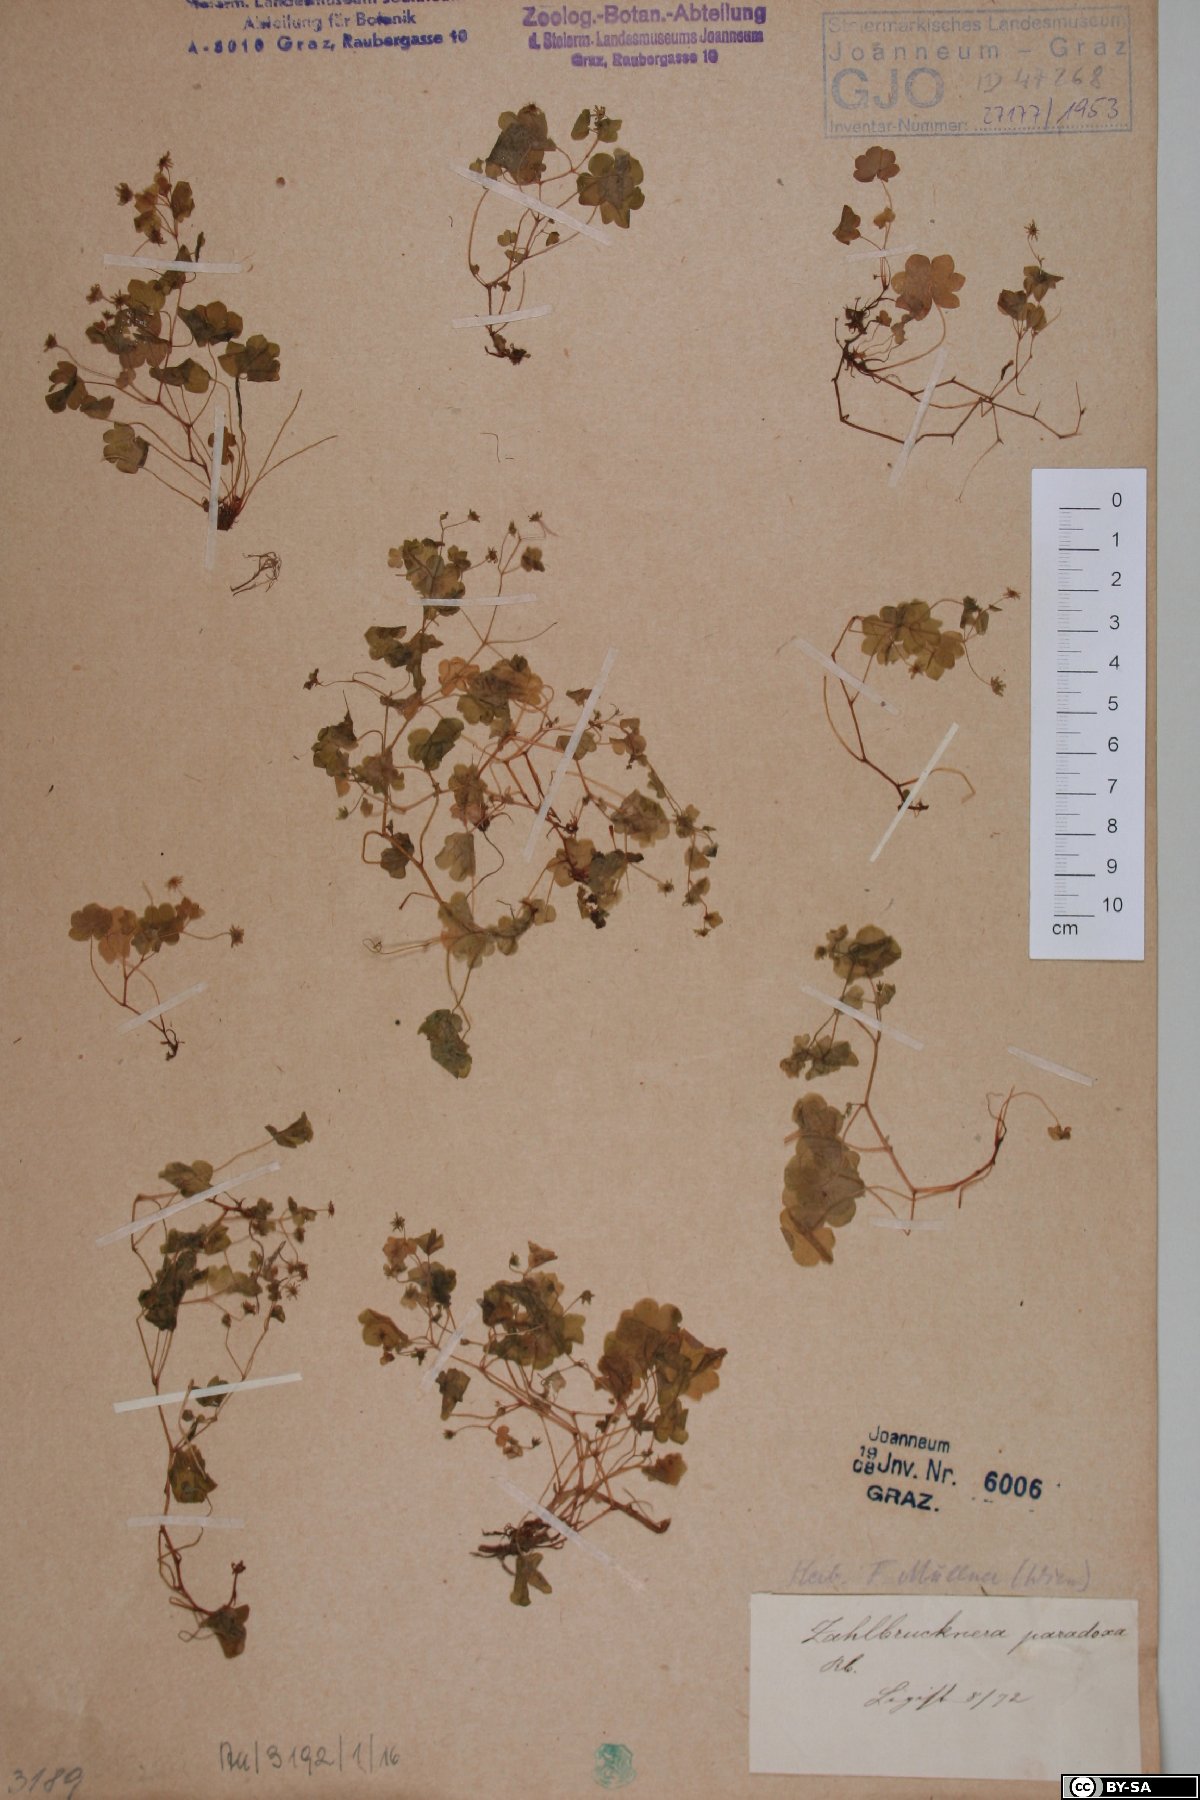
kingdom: Plantae
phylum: Tracheophyta
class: Magnoliopsida
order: Saxifragales
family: Saxifragaceae
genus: Saxifraga
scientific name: Saxifraga paradoxa
